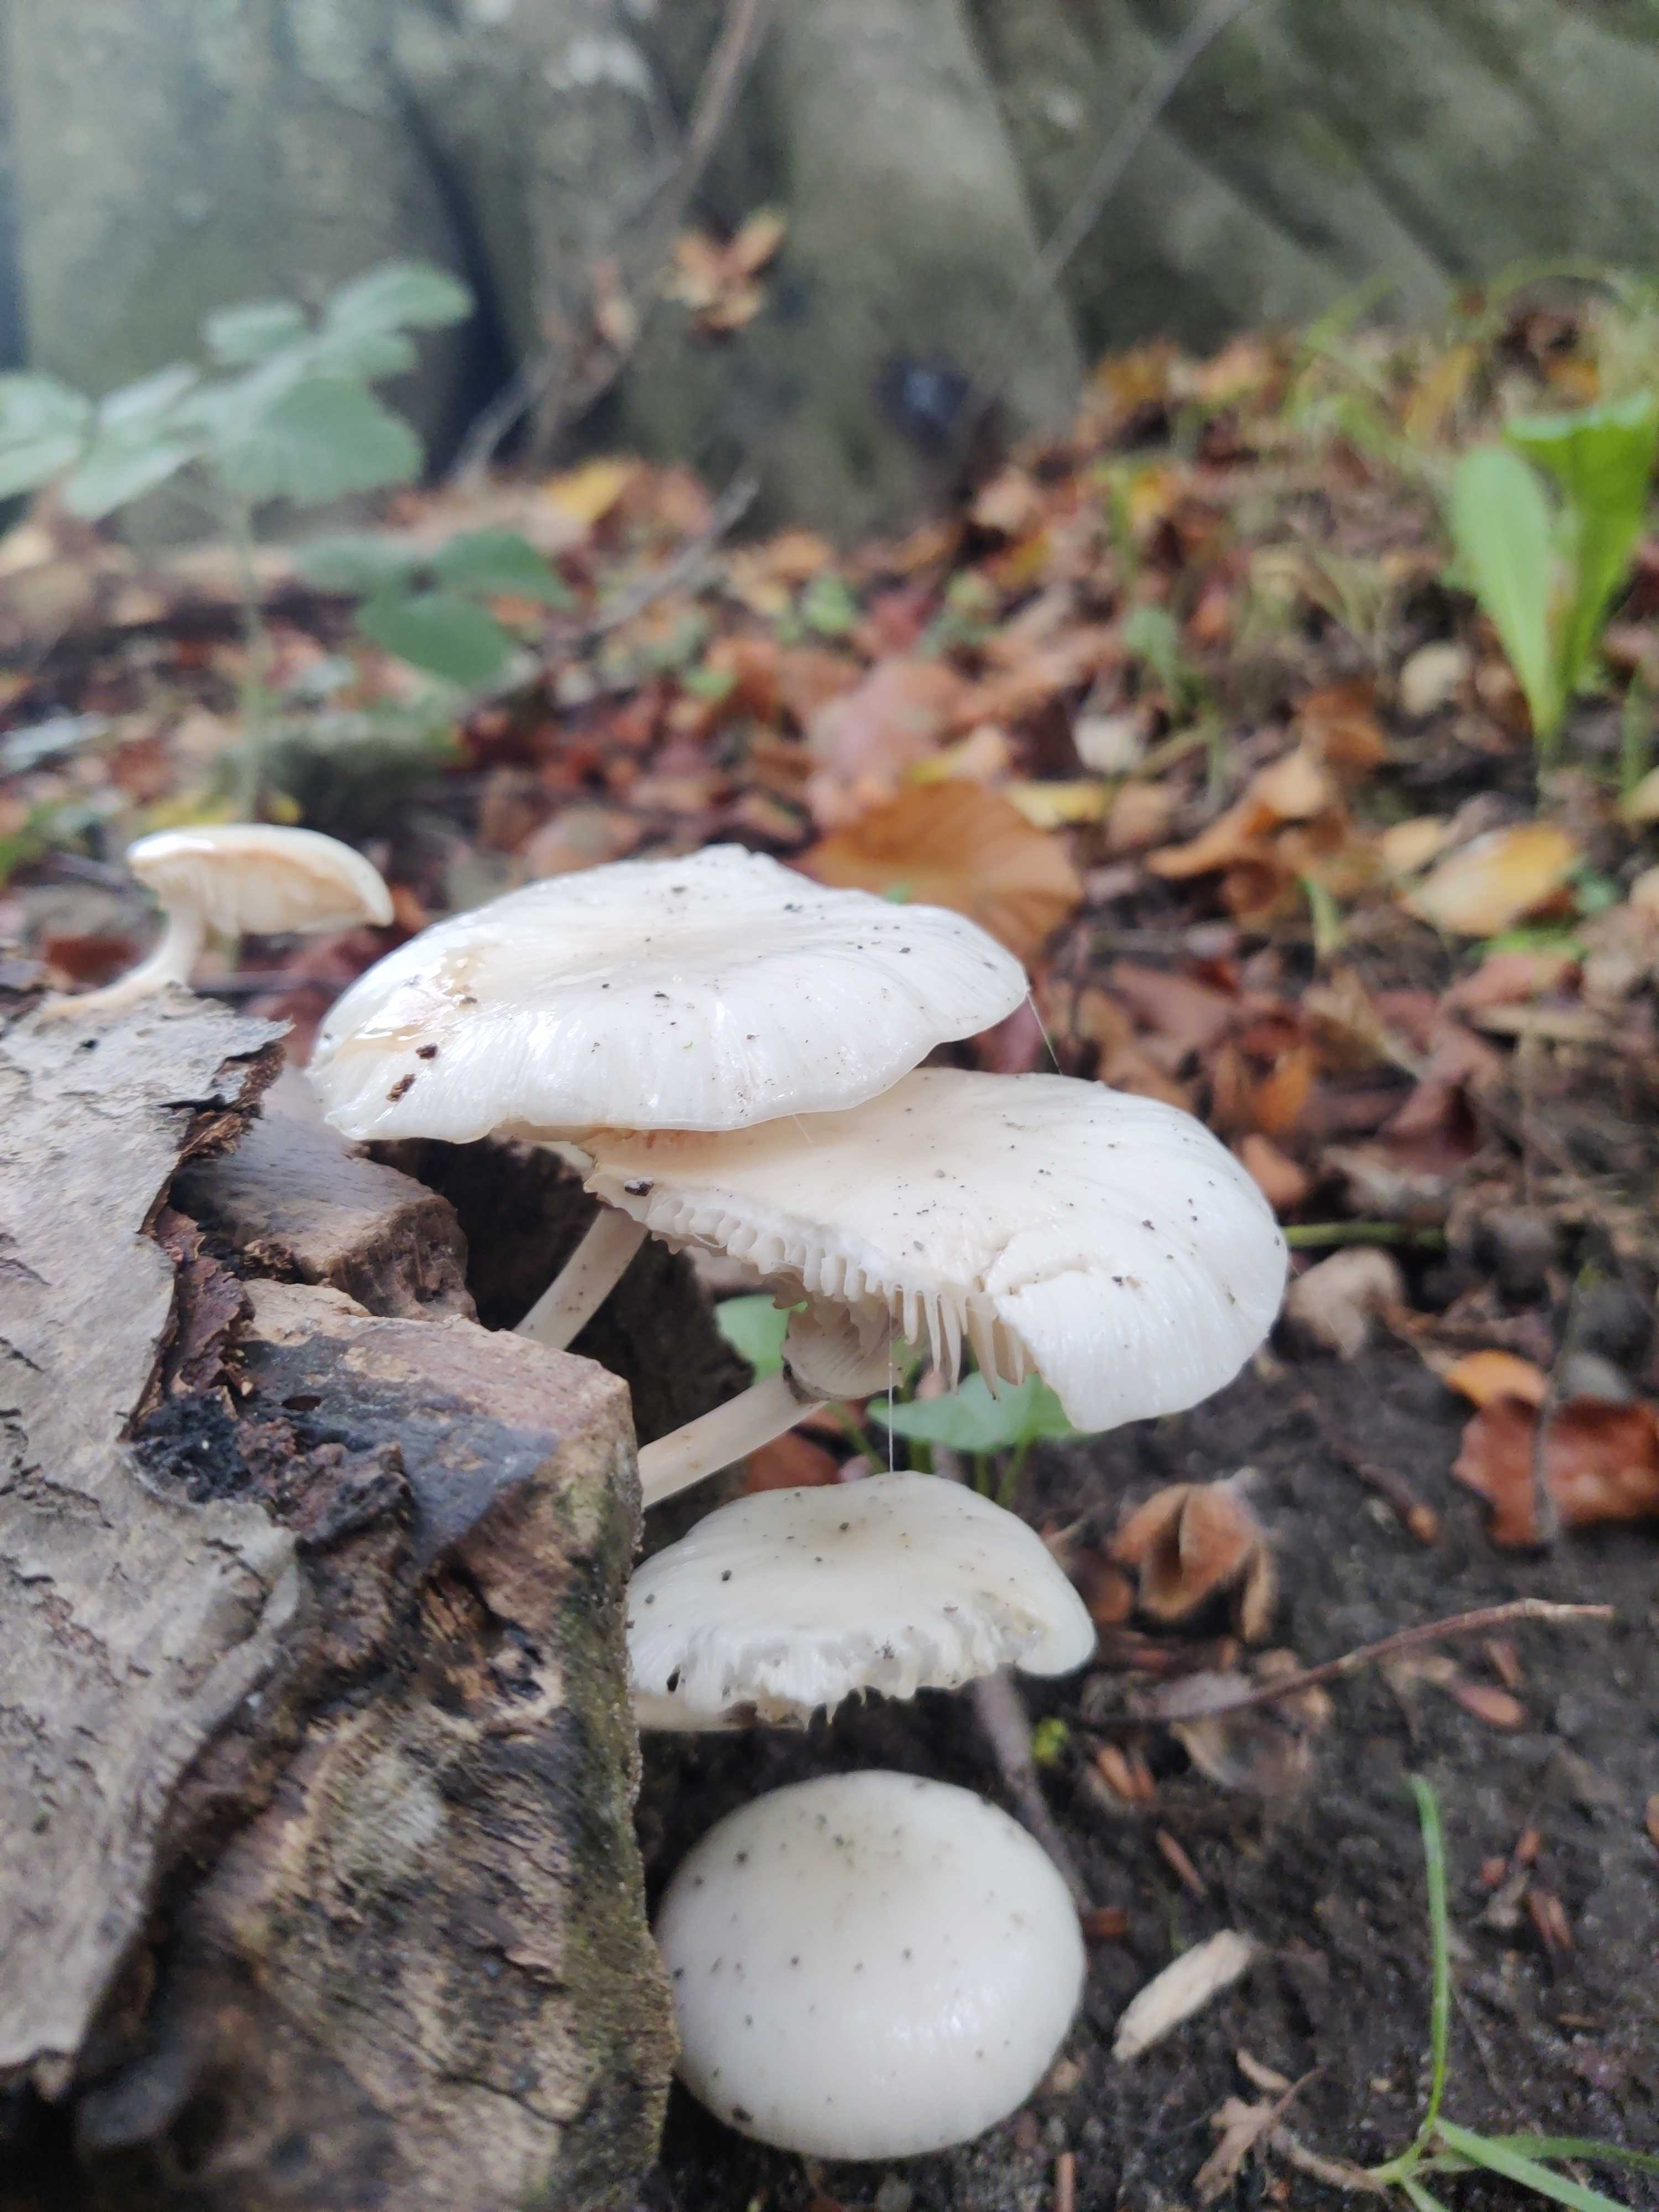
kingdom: Fungi
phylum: Basidiomycota
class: Agaricomycetes
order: Agaricales
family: Physalacriaceae
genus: Mucidula
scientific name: Mucidula mucida
